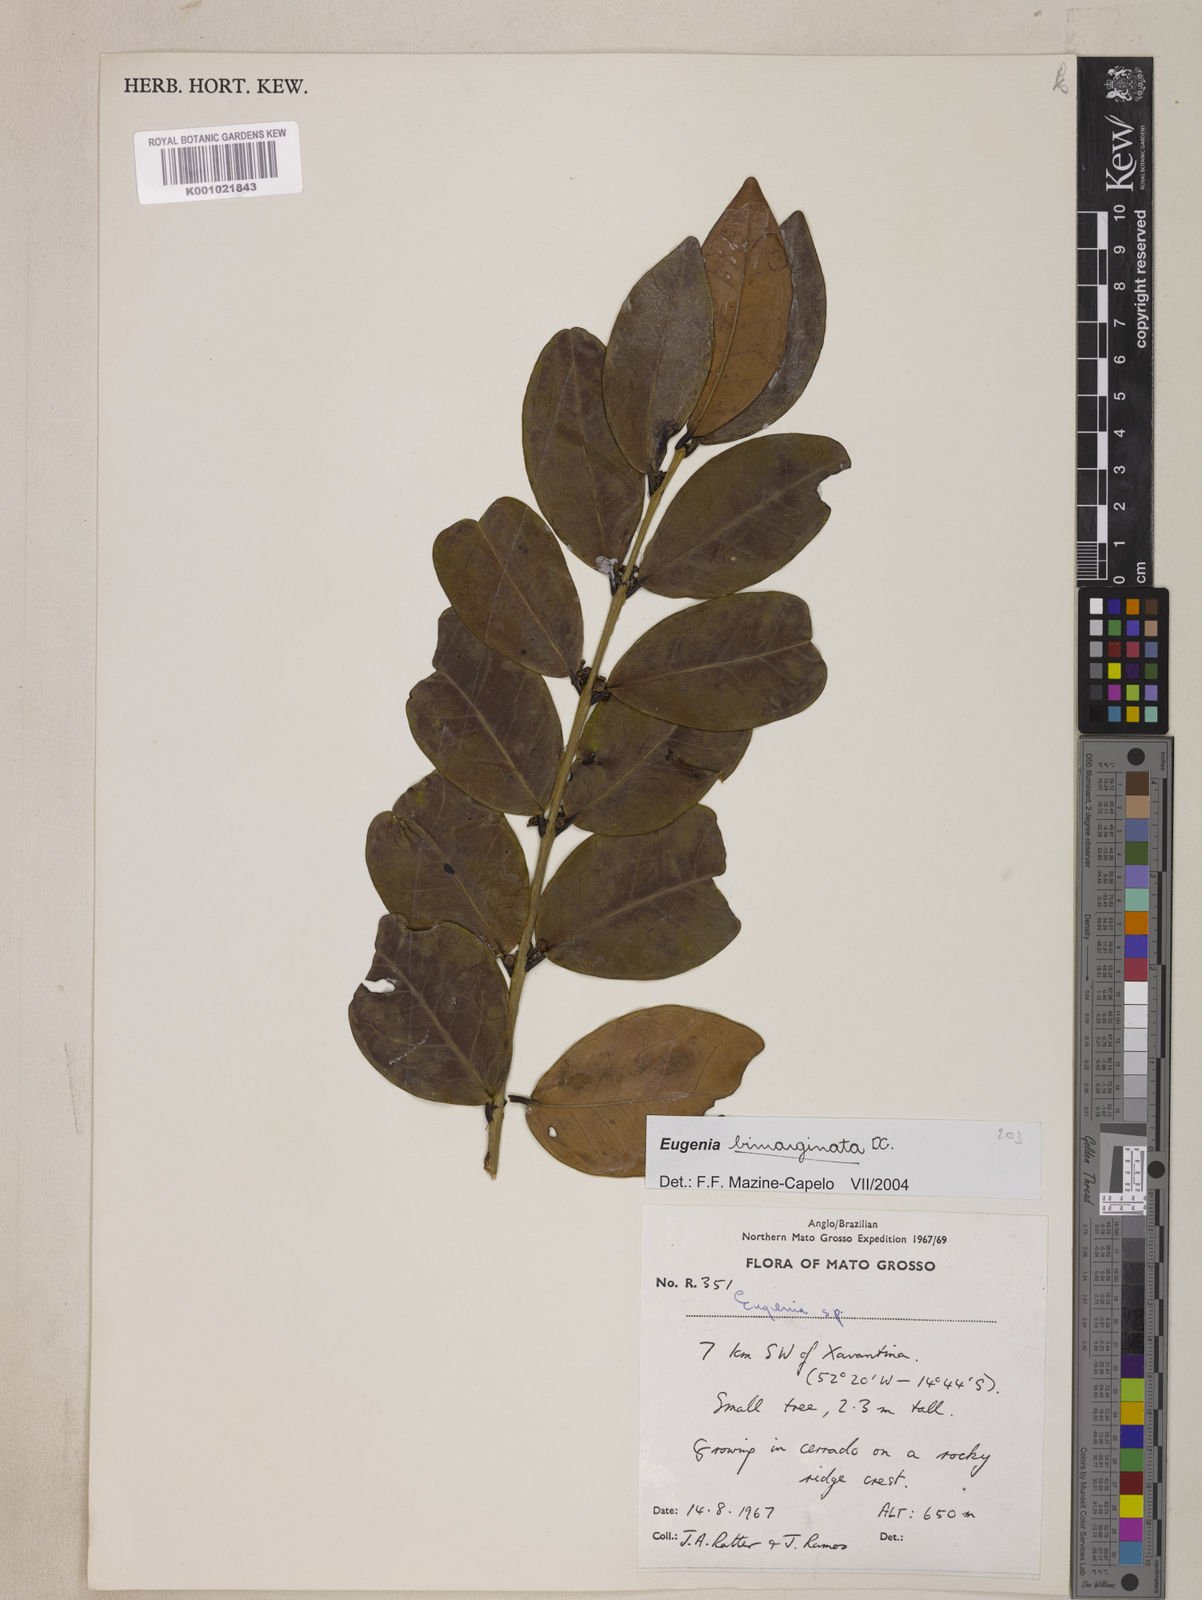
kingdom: Plantae
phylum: Tracheophyta
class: Magnoliopsida
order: Myrtales
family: Myrtaceae
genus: Eugenia
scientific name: Eugenia bimarginata
